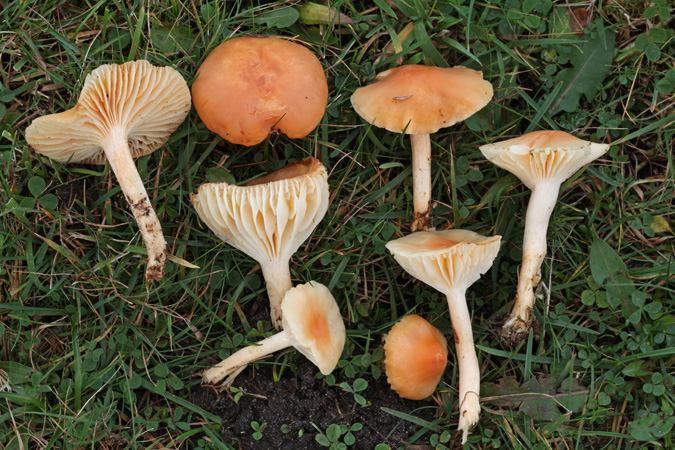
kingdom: Fungi
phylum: Basidiomycota
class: Agaricomycetes
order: Agaricales
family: Hygrophoraceae
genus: Cuphophyllus
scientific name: Cuphophyllus pratensis
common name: eng-vokshat
